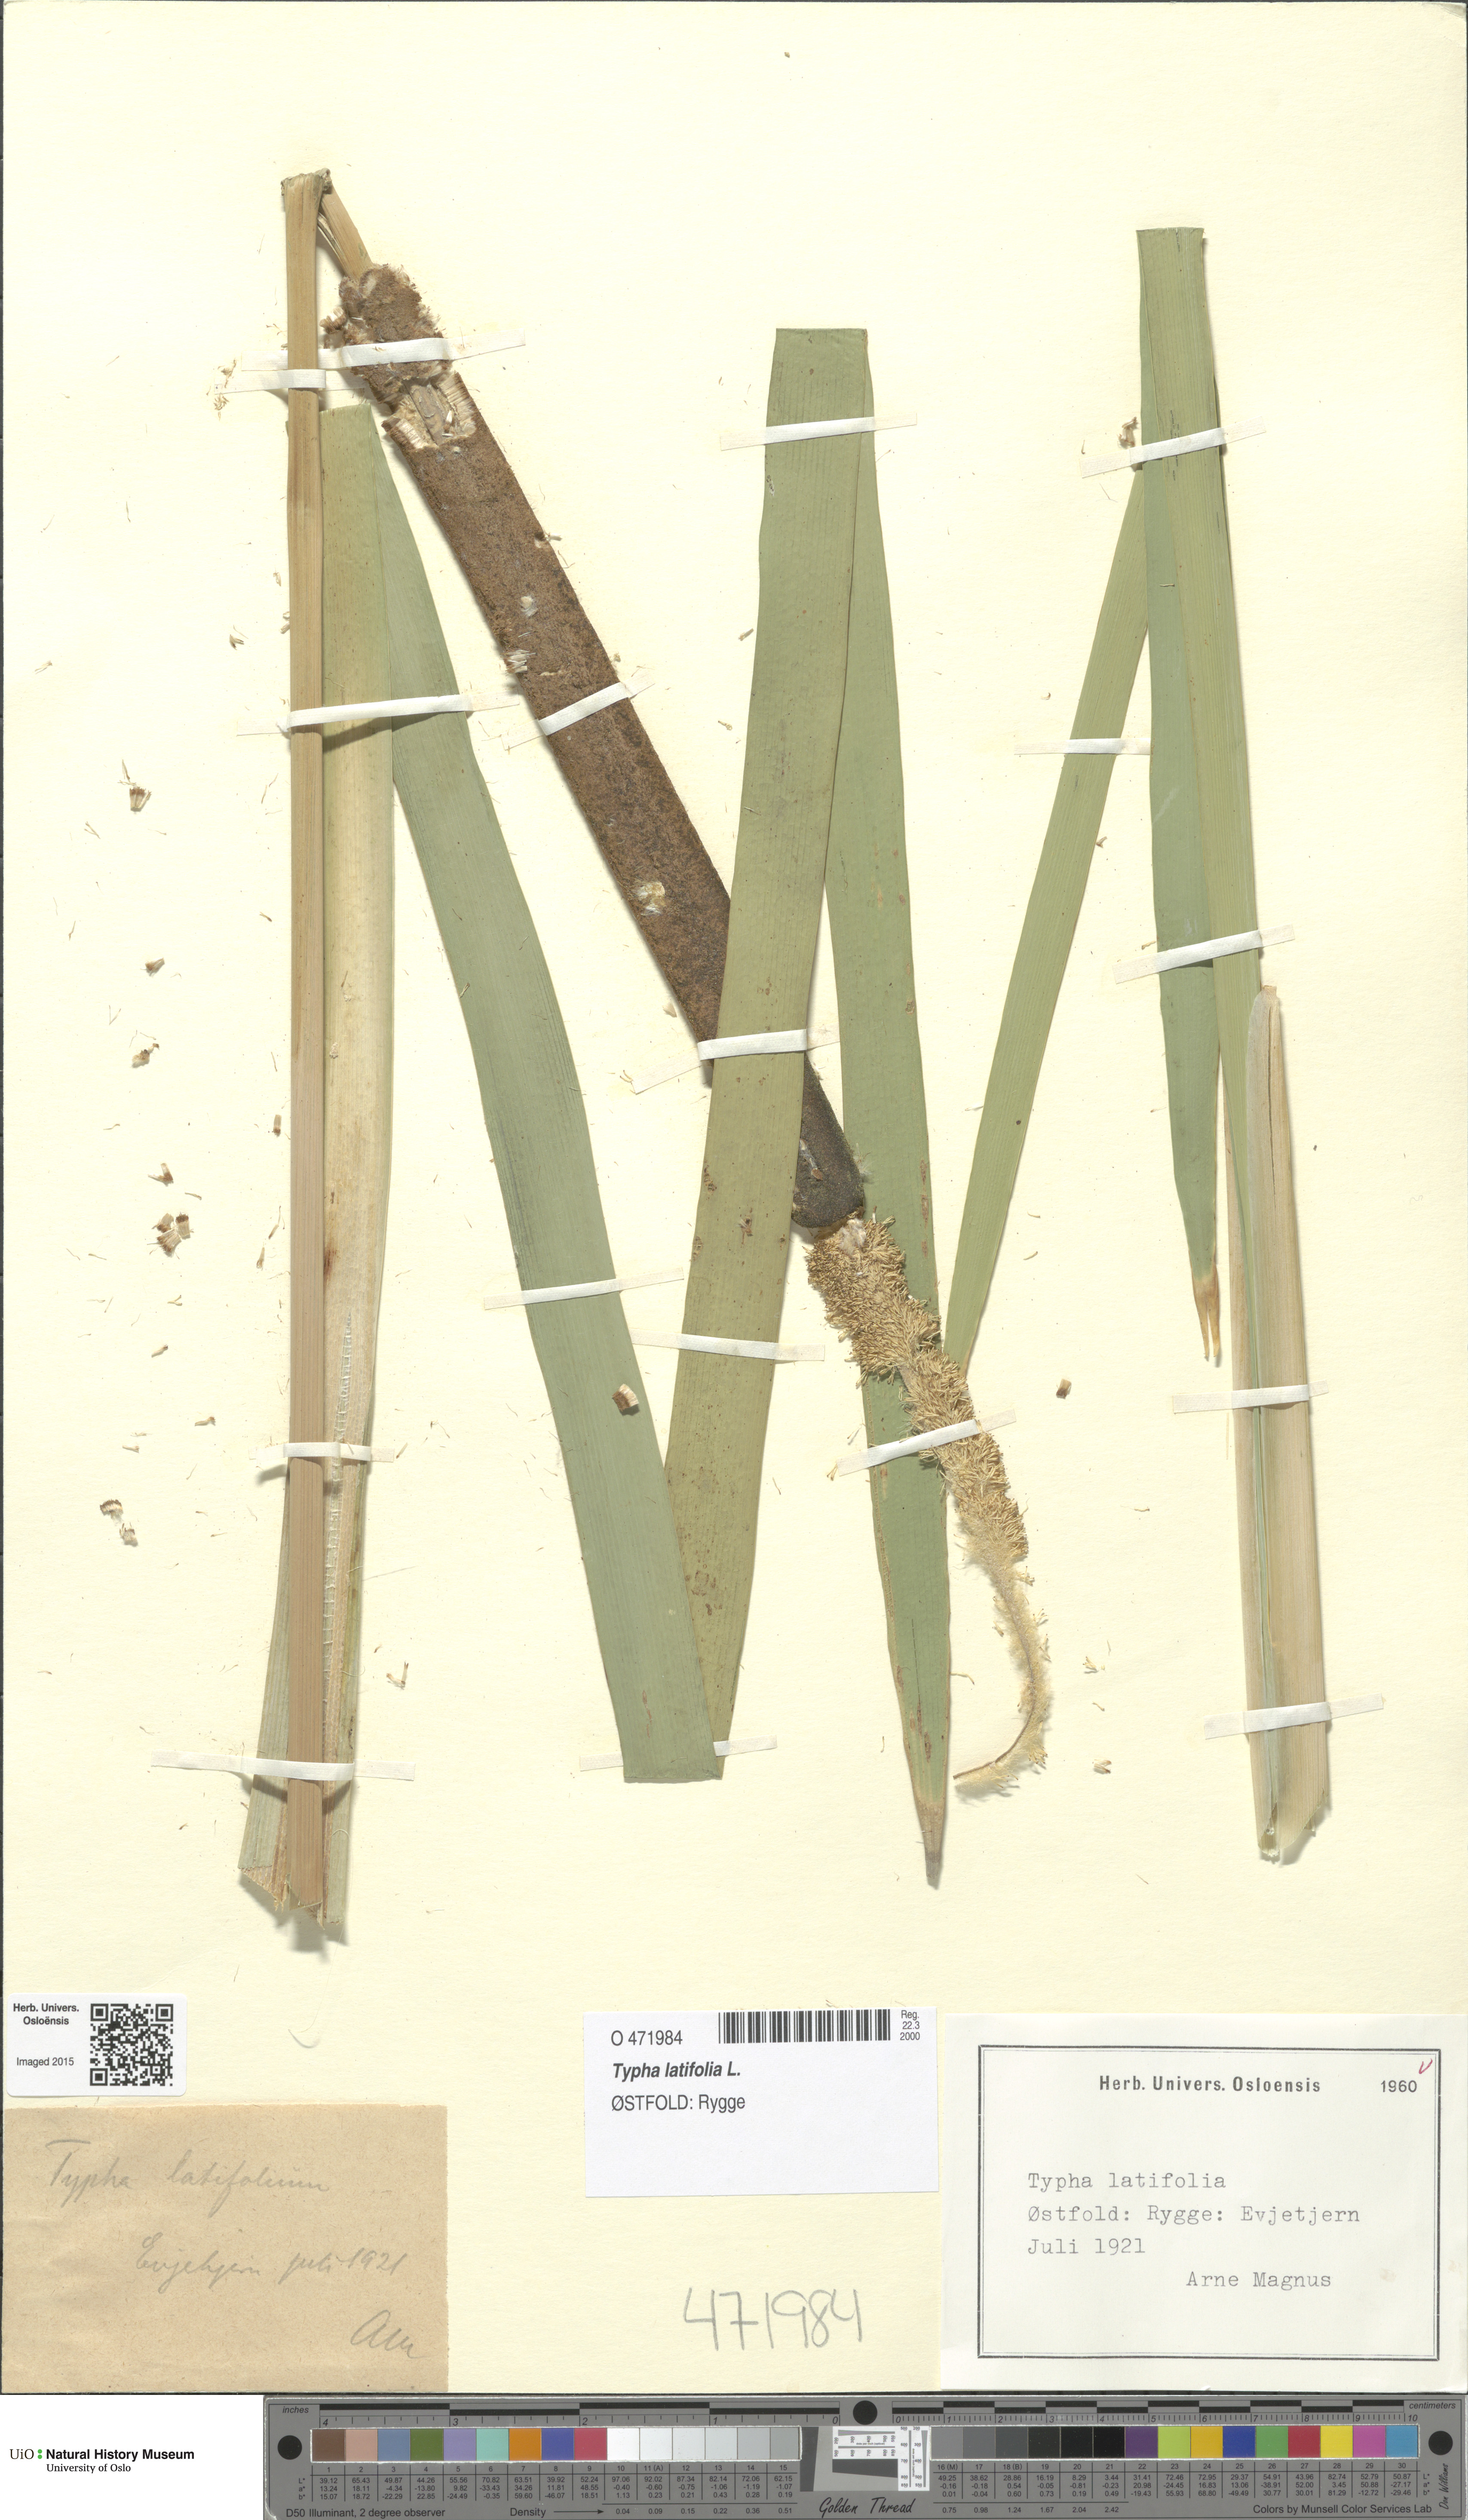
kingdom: Plantae
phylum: Tracheophyta
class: Liliopsida
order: Poales
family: Typhaceae
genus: Typha
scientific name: Typha latifolia
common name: Broadleaf cattail
